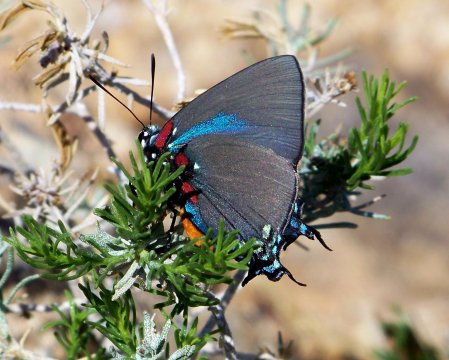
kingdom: Animalia
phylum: Arthropoda
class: Insecta
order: Lepidoptera
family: Lycaenidae
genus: Atlides
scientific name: Atlides halesus
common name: Great Purple Hairstreak
